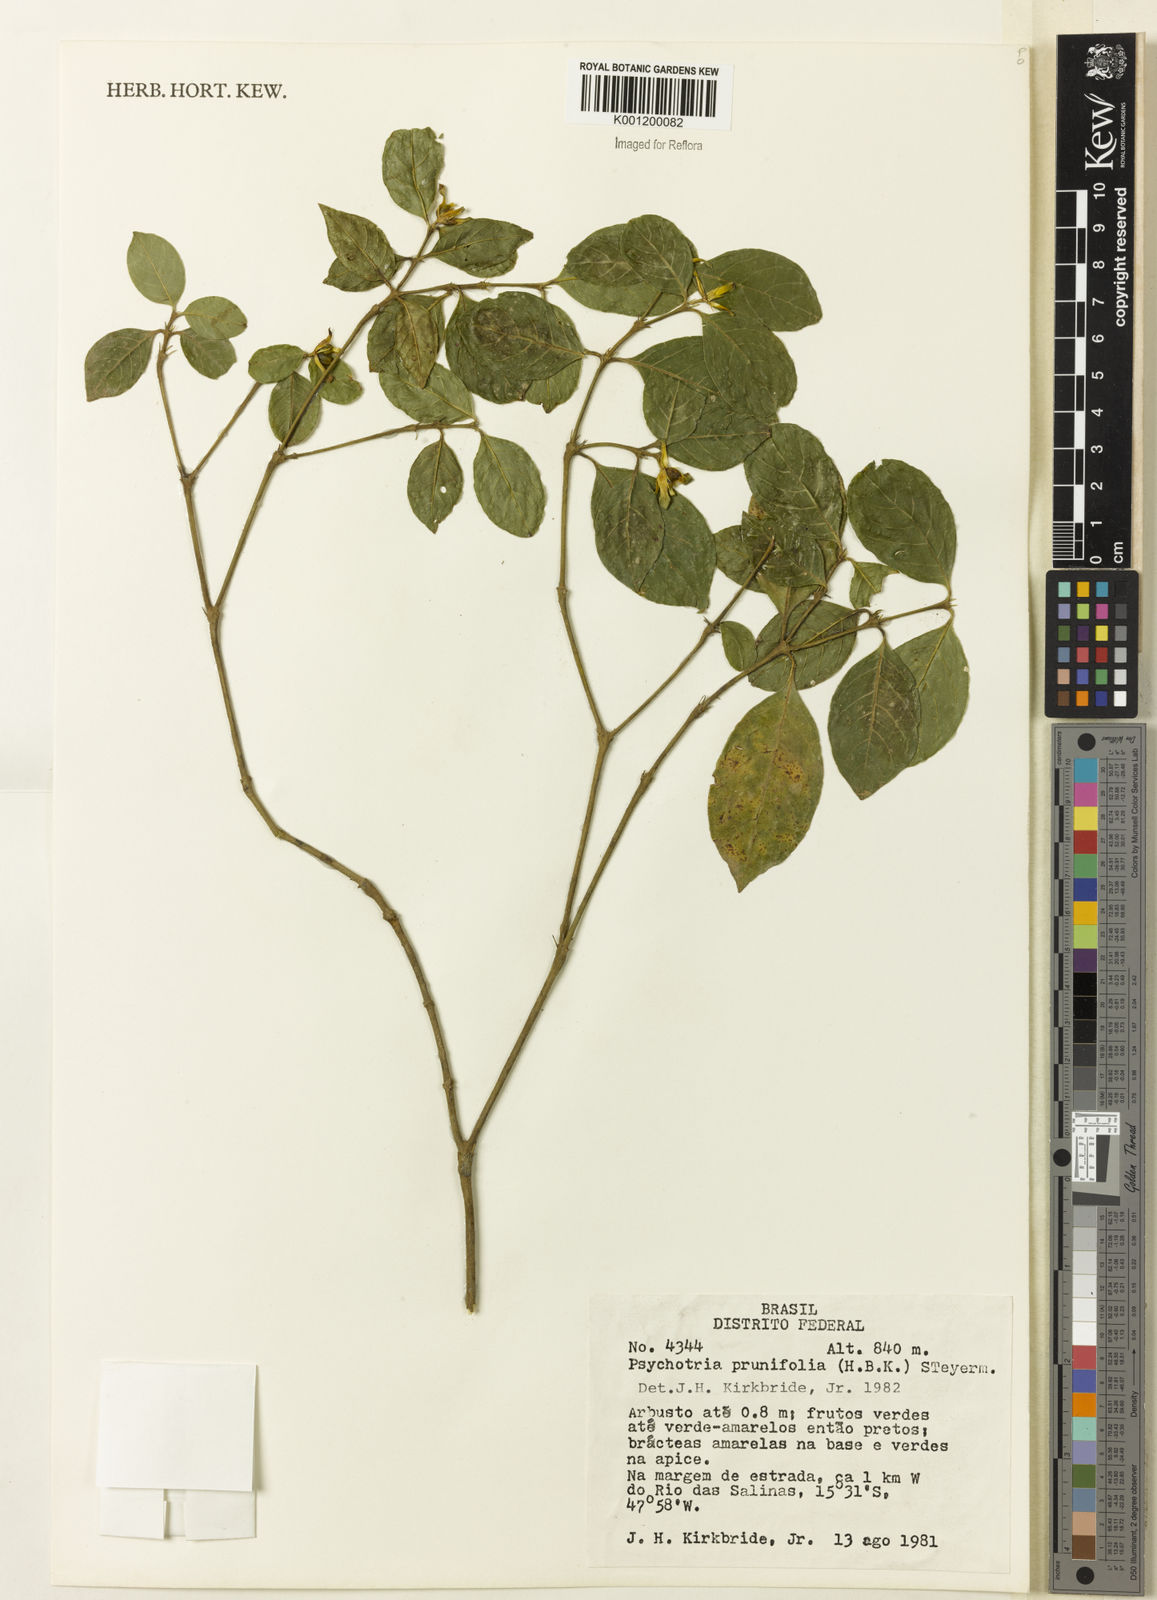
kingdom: Plantae
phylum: Tracheophyta
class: Magnoliopsida
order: Gentianales
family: Rubiaceae
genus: Palicourea
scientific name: Palicourea prunifolia
